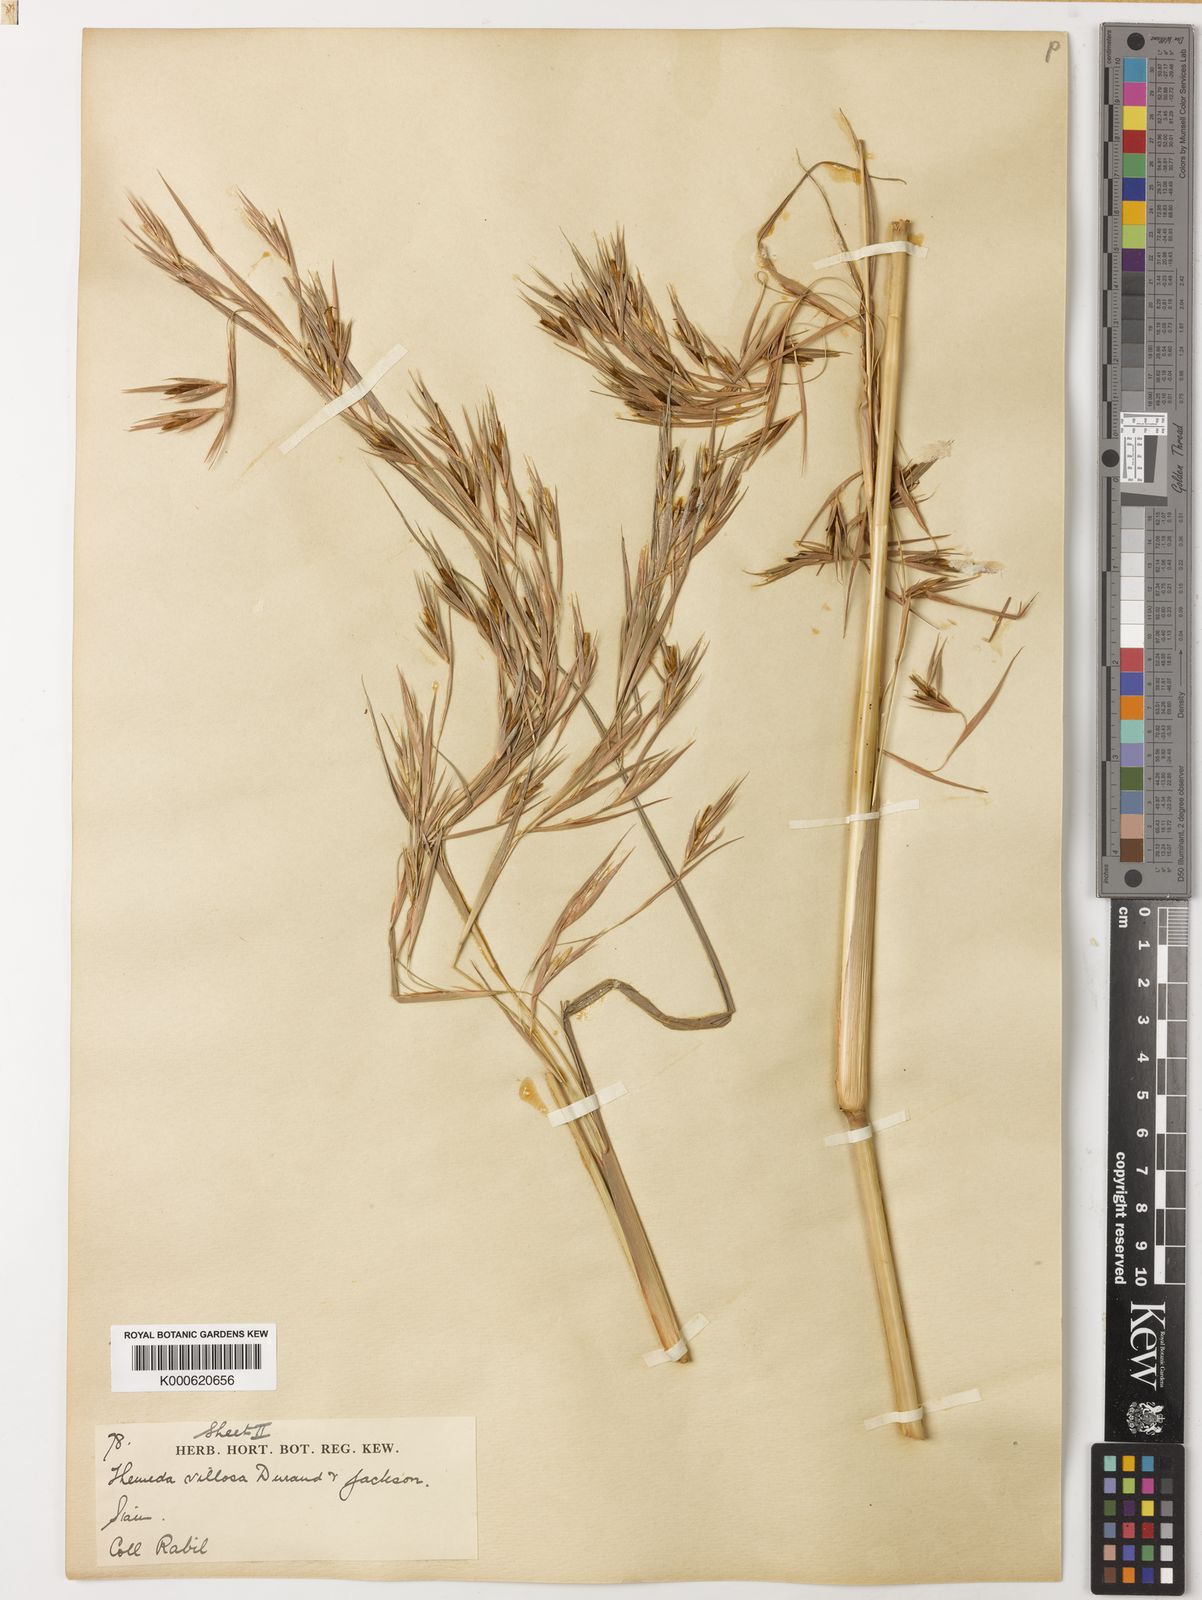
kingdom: Plantae
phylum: Tracheophyta
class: Liliopsida
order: Poales
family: Poaceae
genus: Themeda
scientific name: Themeda villosa
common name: Silky kangaroo grass
